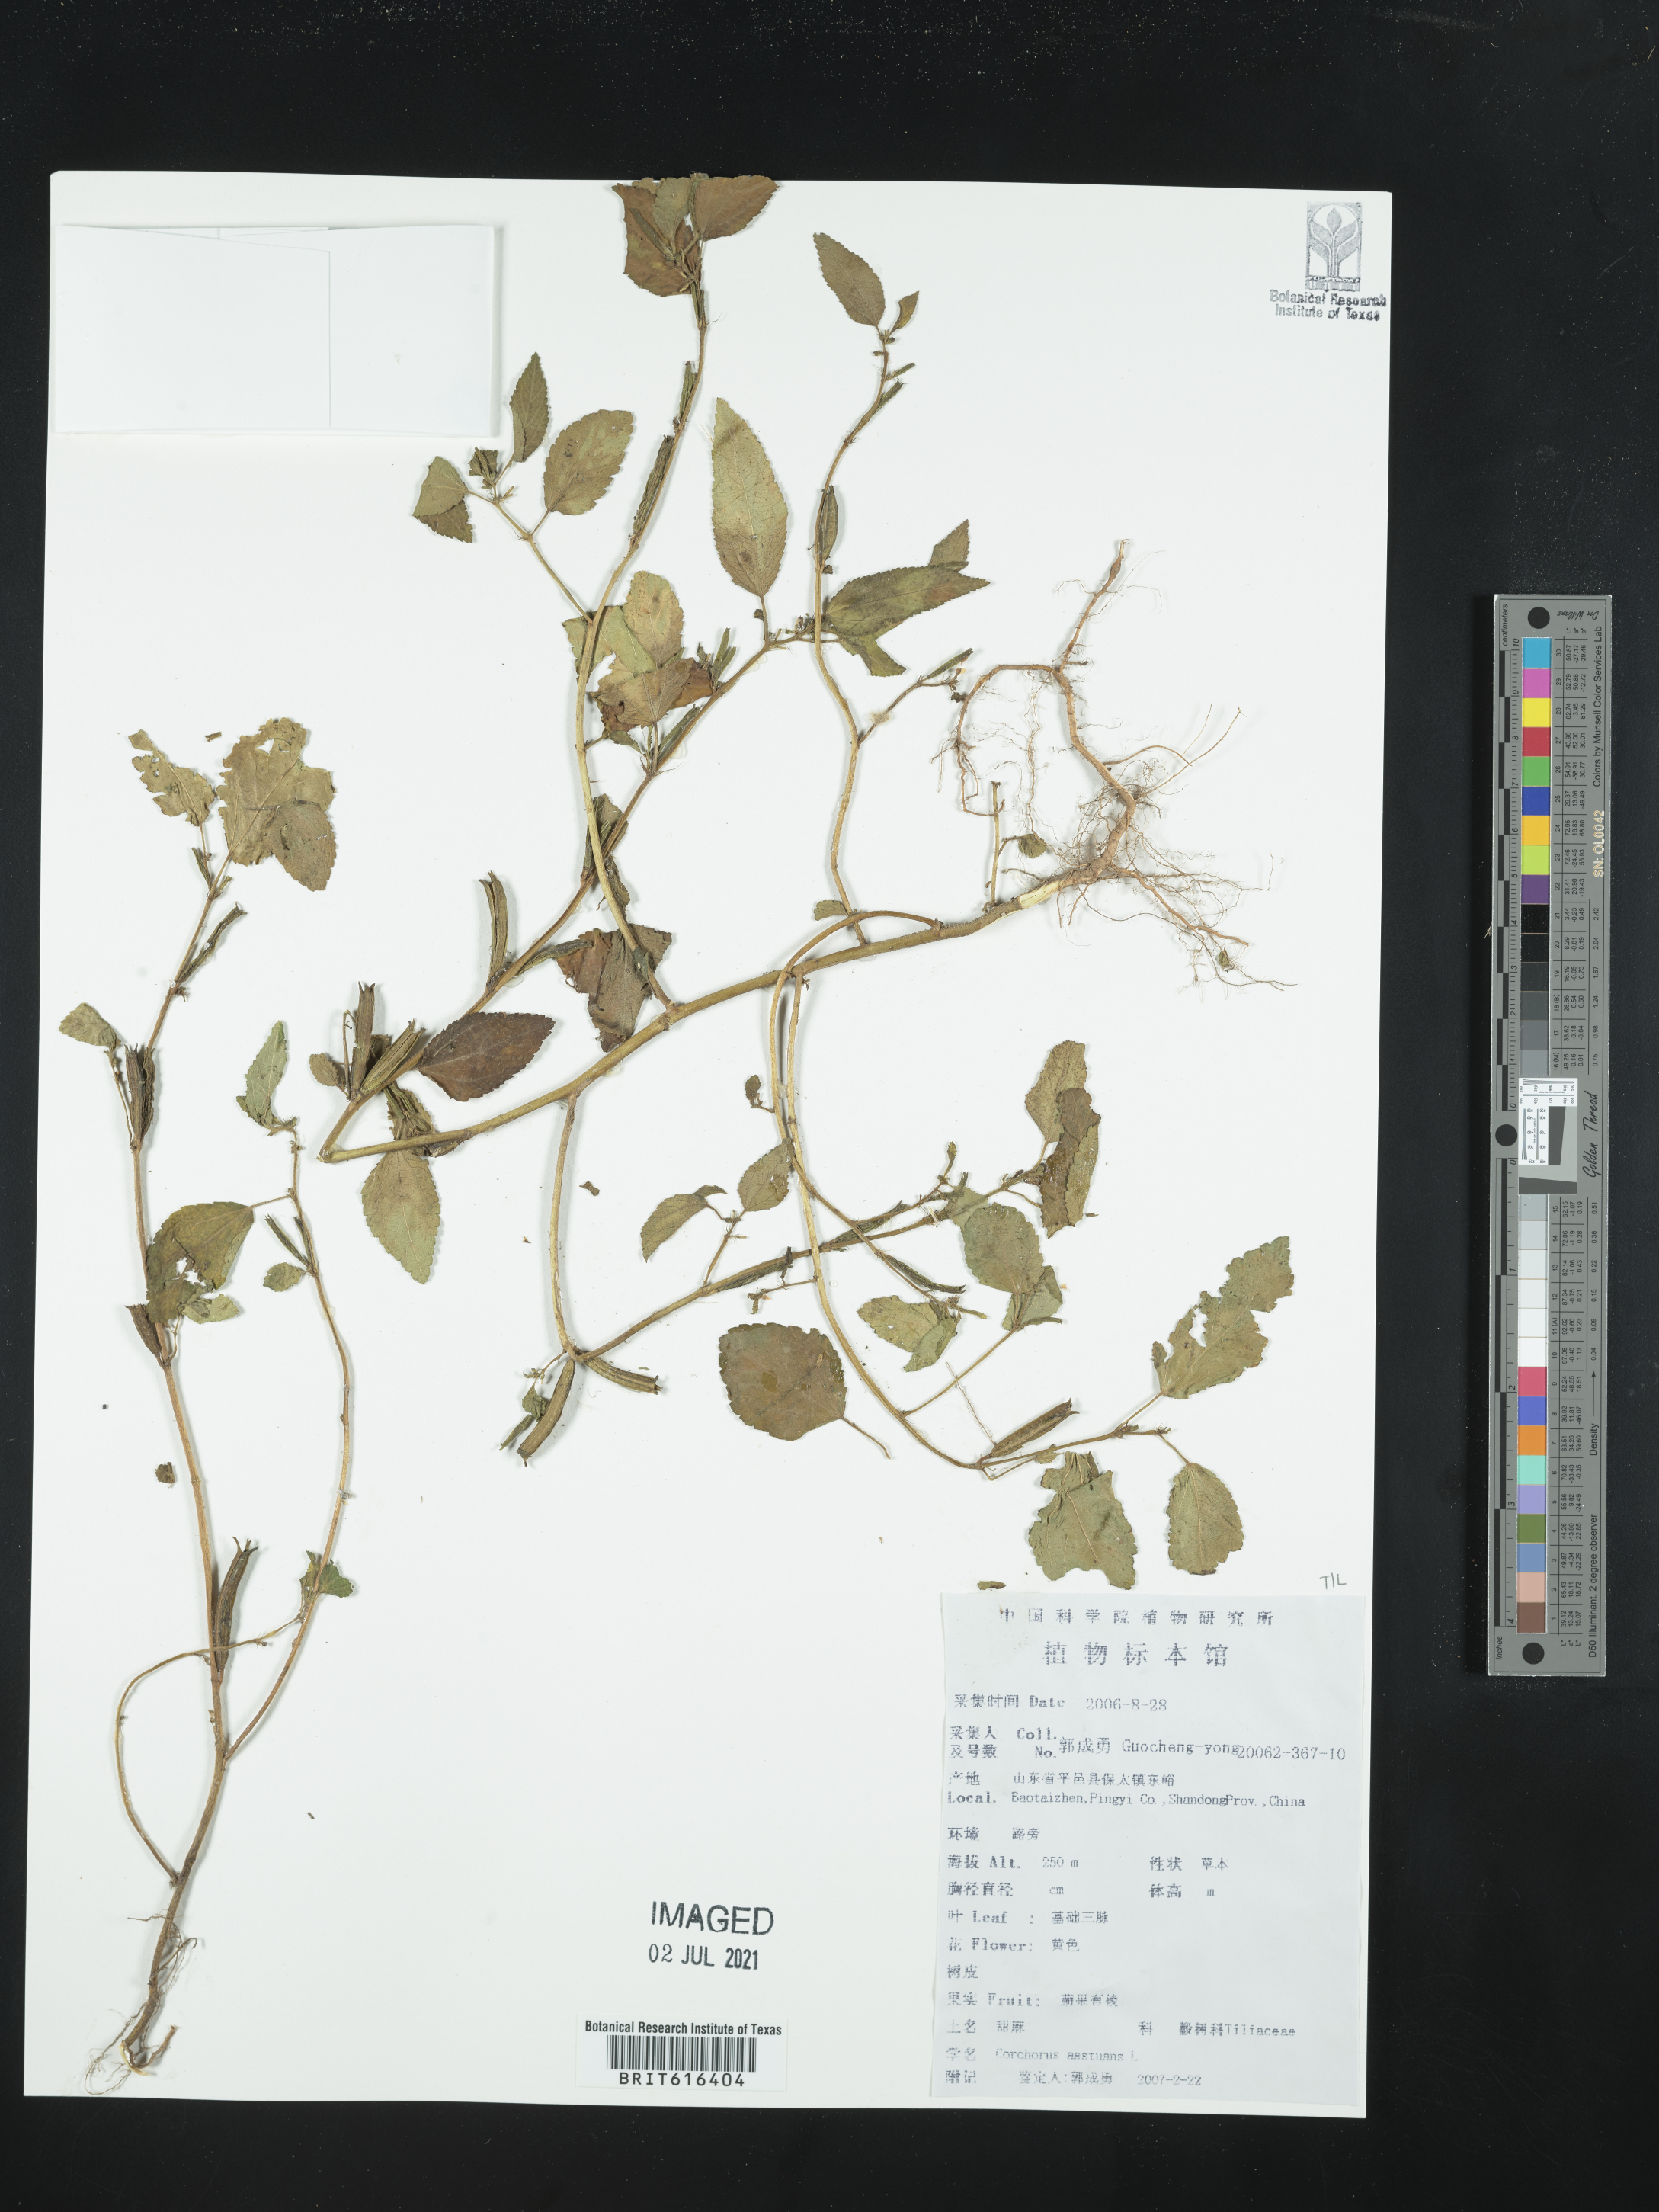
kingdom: Plantae
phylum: Tracheophyta
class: Magnoliopsida
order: Malvales
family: Malvaceae
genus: Corchorus
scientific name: Corchorus aestuans
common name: Jute
